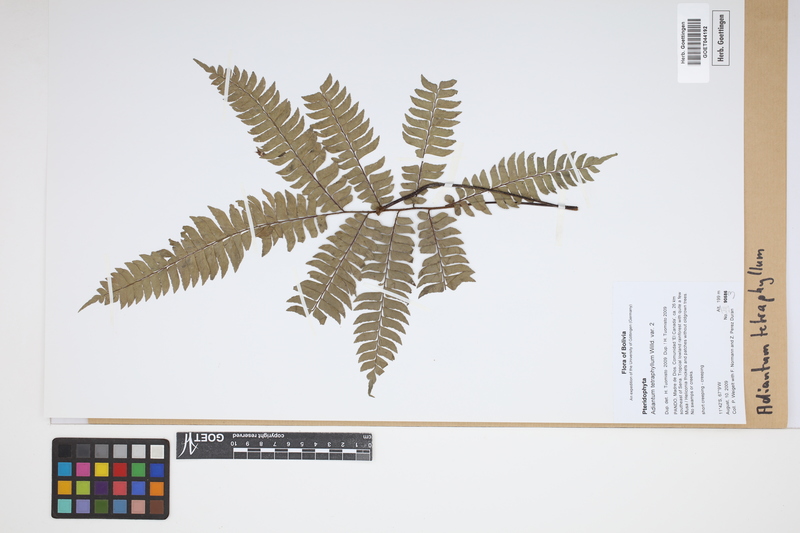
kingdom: Plantae
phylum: Tracheophyta
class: Polypodiopsida
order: Polypodiales
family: Pteridaceae
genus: Adiantum
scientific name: Adiantum tetraphyllum
